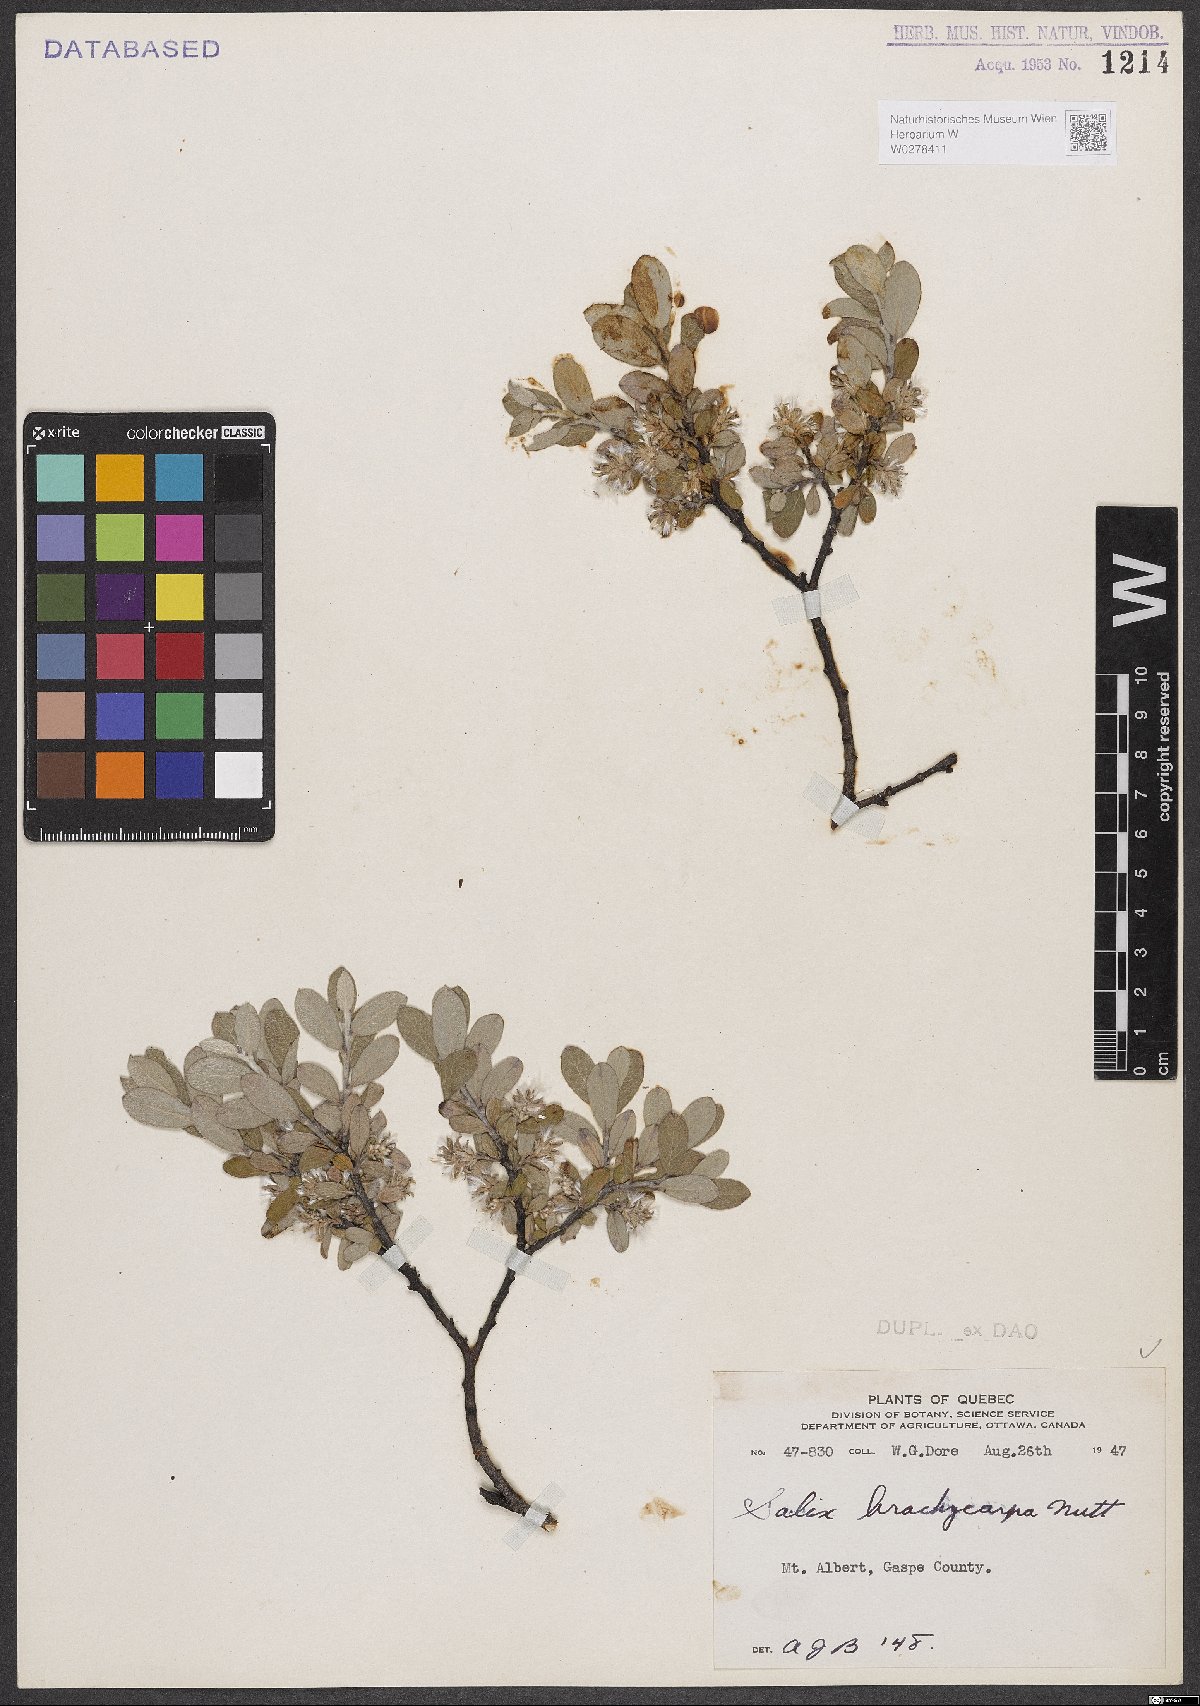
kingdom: Plantae
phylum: Tracheophyta
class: Magnoliopsida
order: Malpighiales
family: Salicaceae
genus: Salix
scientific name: Salix brachycarpa
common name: Barren-ground willow
